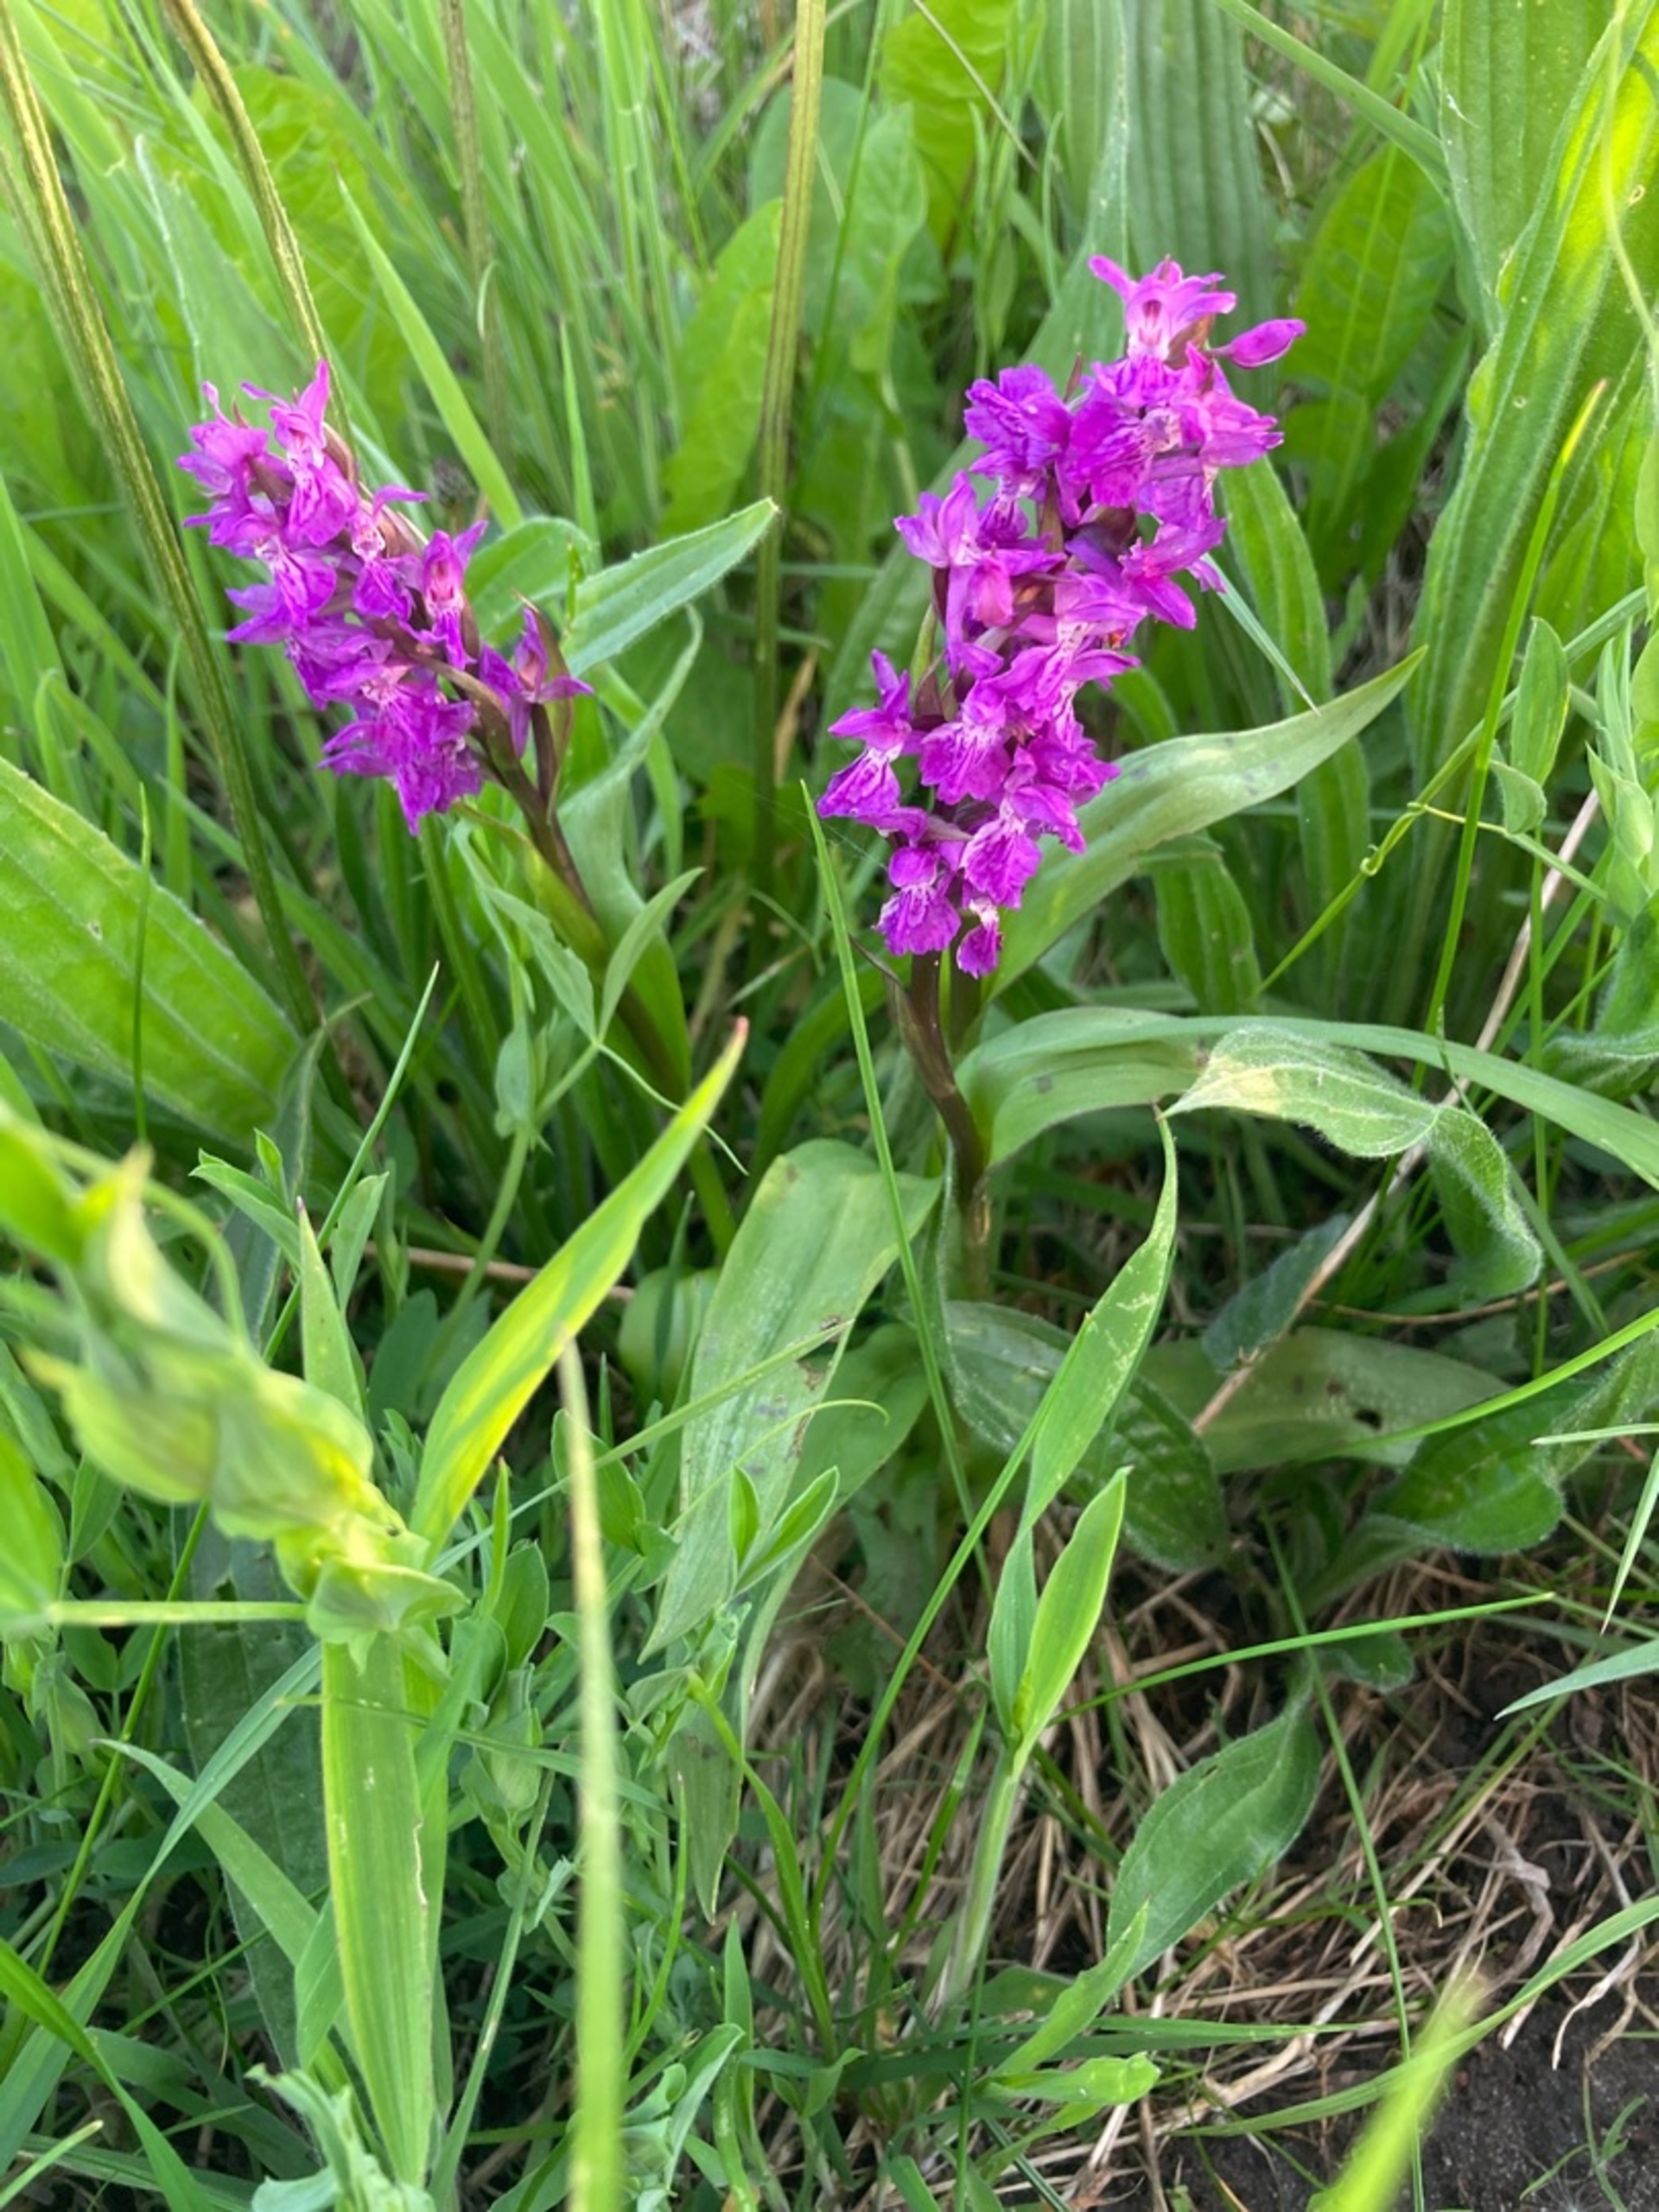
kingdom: Plantae
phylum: Tracheophyta
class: Liliopsida
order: Asparagales
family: Orchidaceae
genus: Dactylorhiza
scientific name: Dactylorhiza majalis
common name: Maj-gøgeurt
